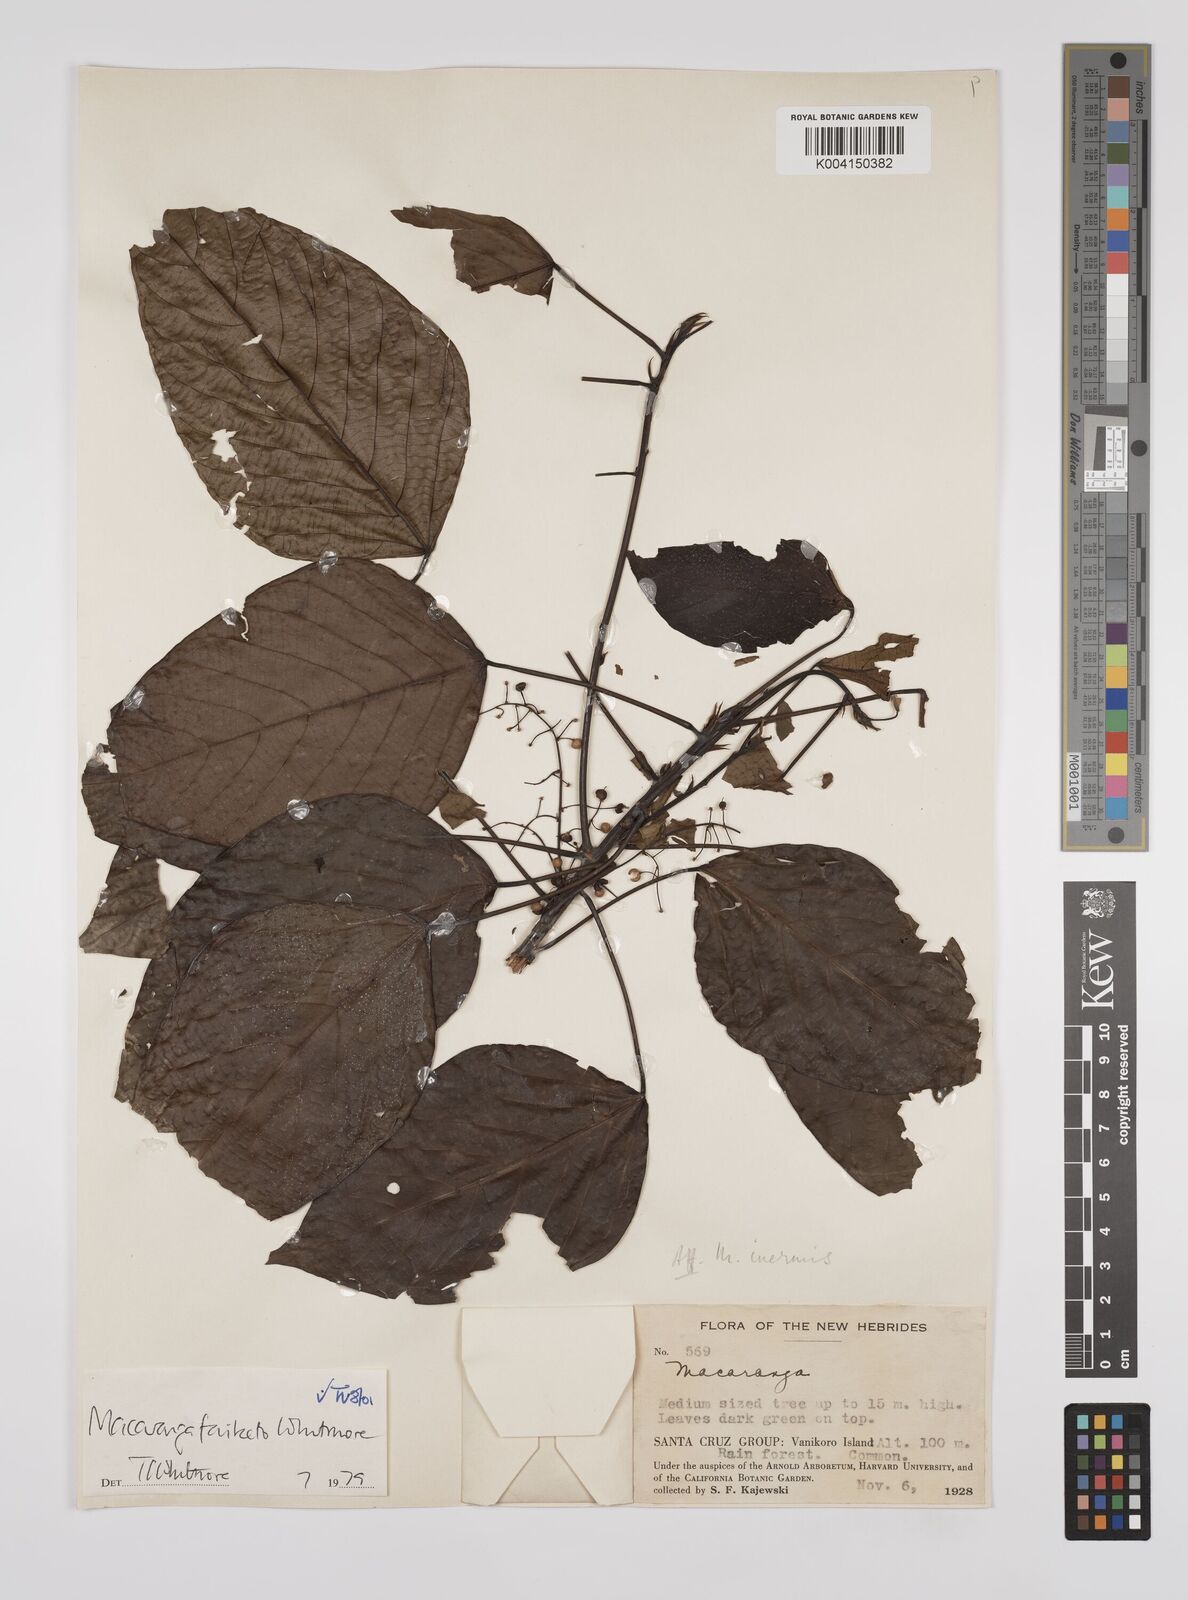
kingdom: Plantae
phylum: Tracheophyta
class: Magnoliopsida
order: Malpighiales
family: Euphorbiaceae
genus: Macaranga
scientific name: Macaranga faiketo
